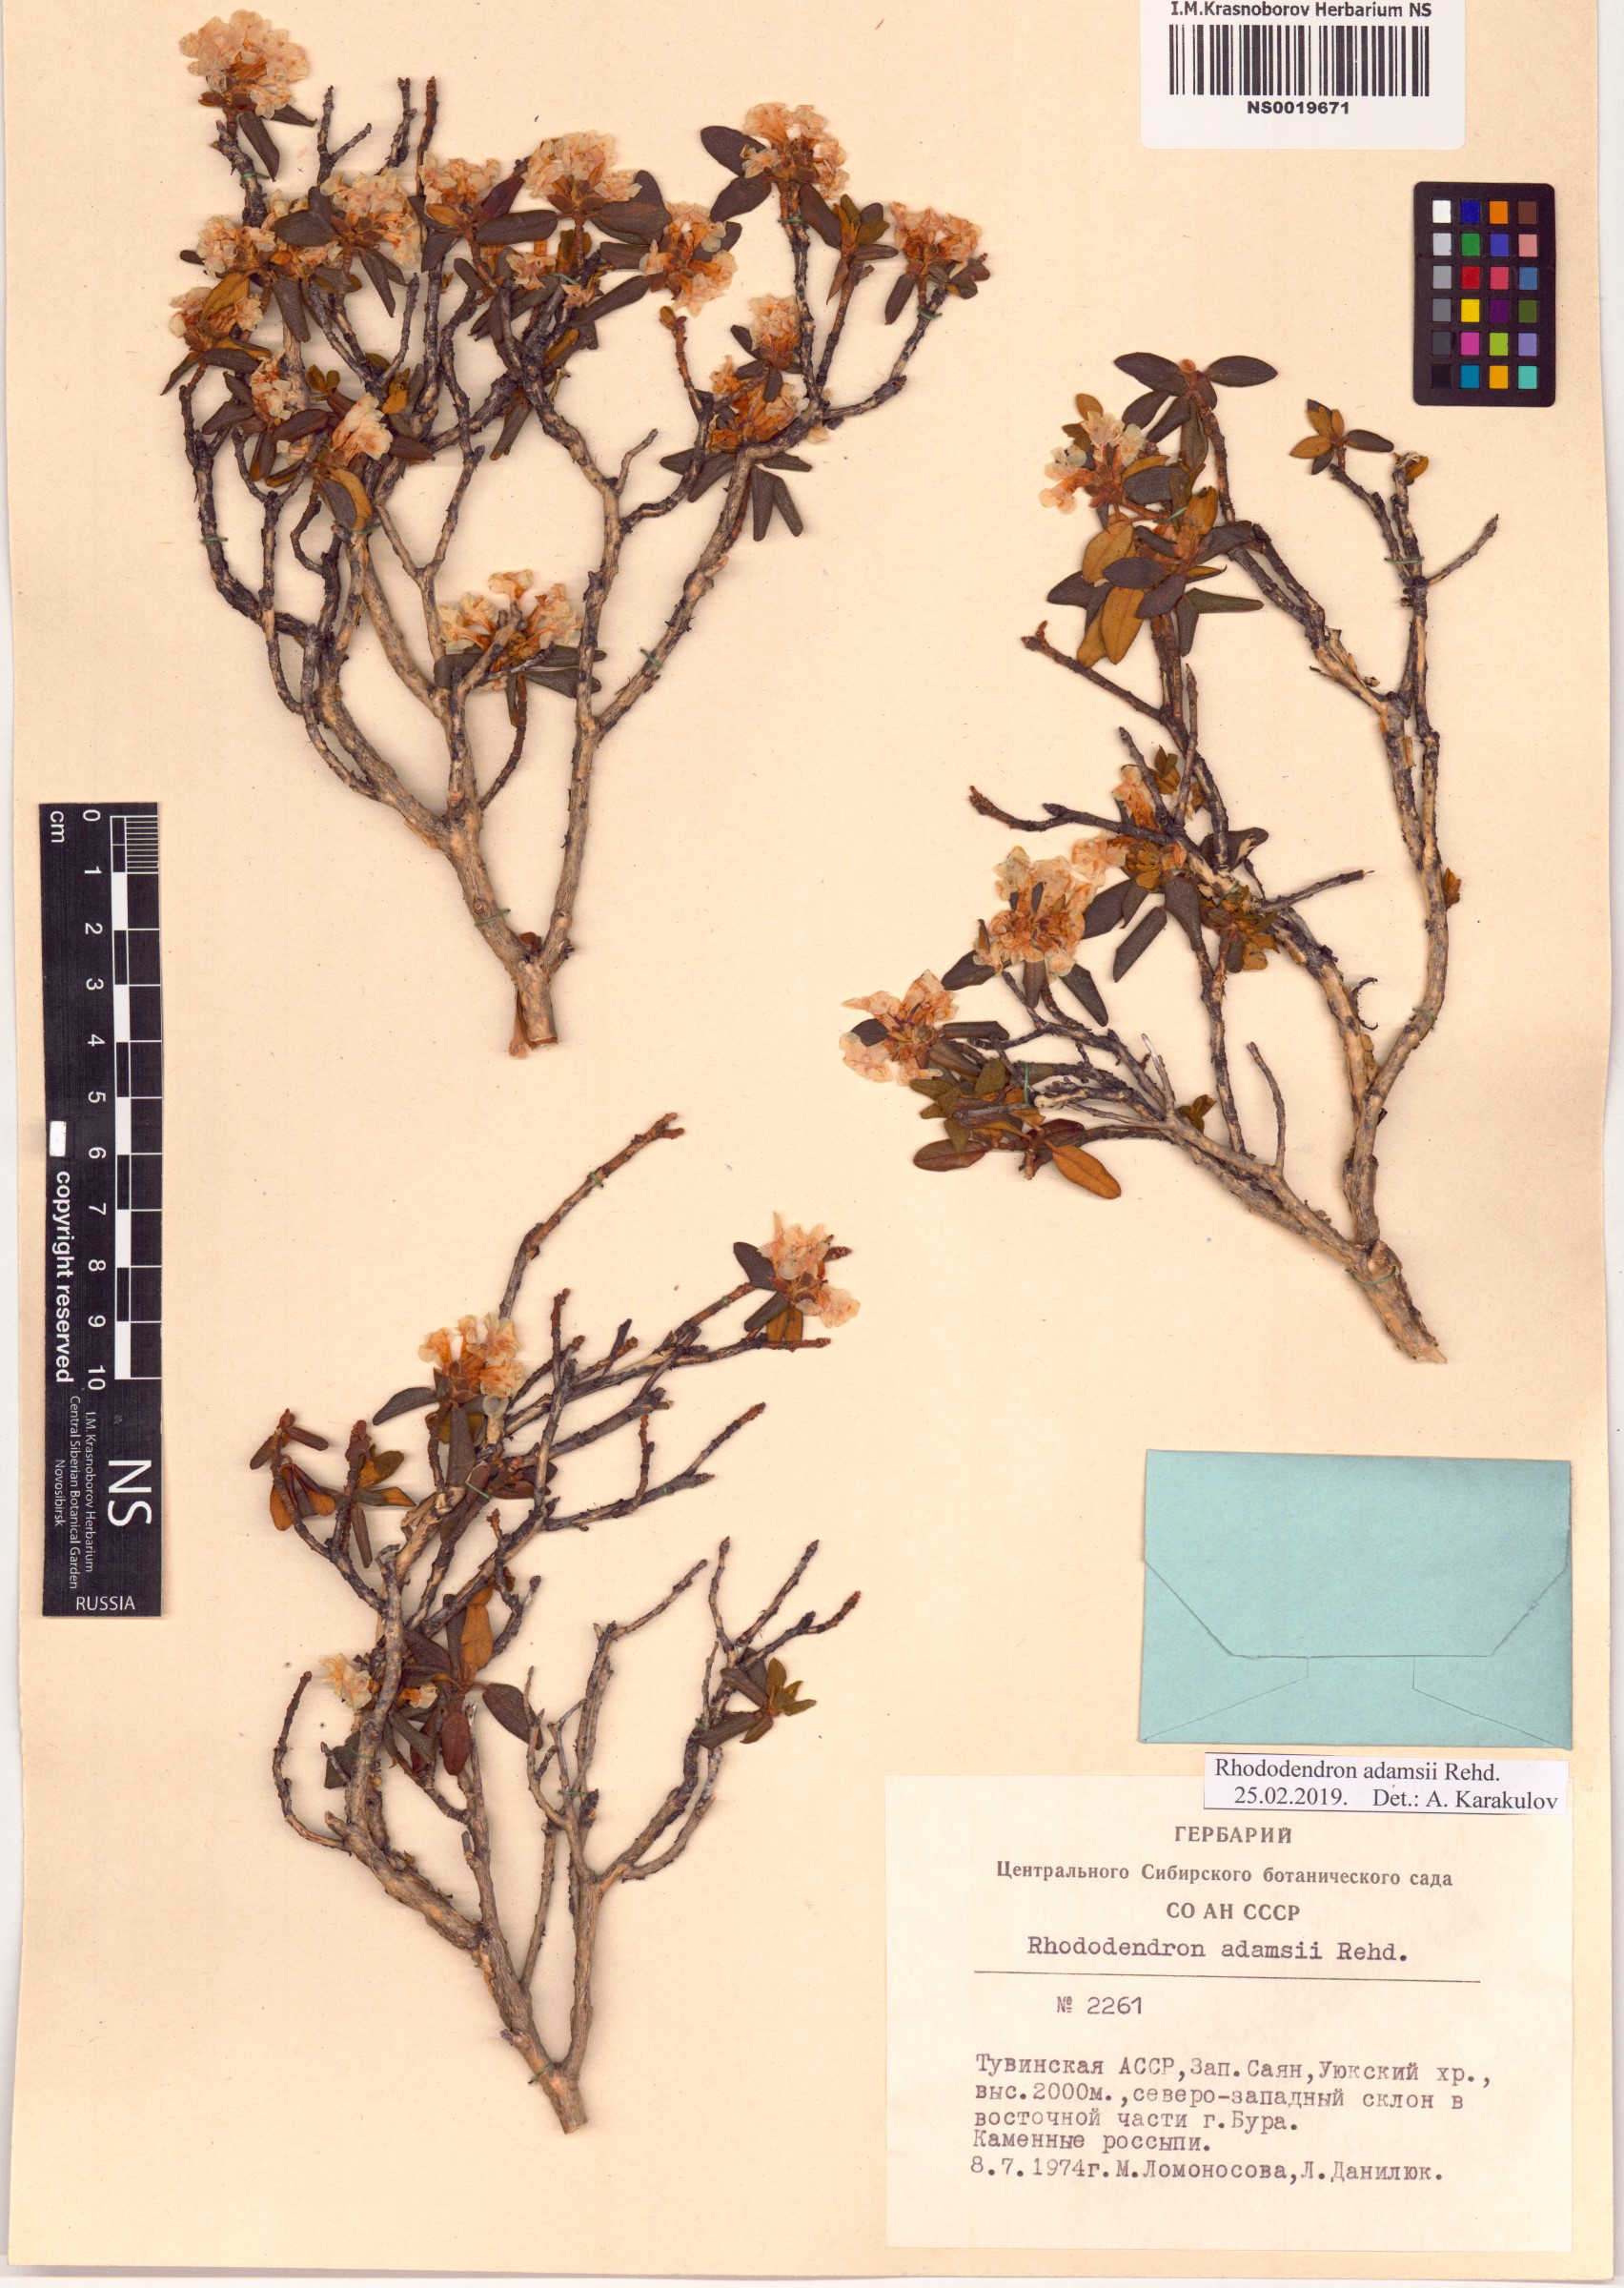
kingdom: Plantae
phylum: Tracheophyta
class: Magnoliopsida
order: Ericales
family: Ericaceae
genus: Rhododendron
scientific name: Rhododendron adamsii
